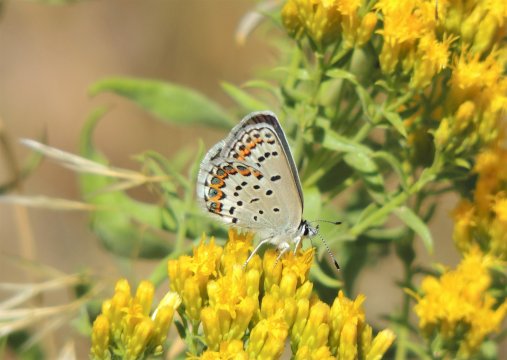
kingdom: Animalia
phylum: Arthropoda
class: Insecta
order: Lepidoptera
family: Lycaenidae
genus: Lycaeides
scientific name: Lycaeides melissa
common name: Melissa Blue
